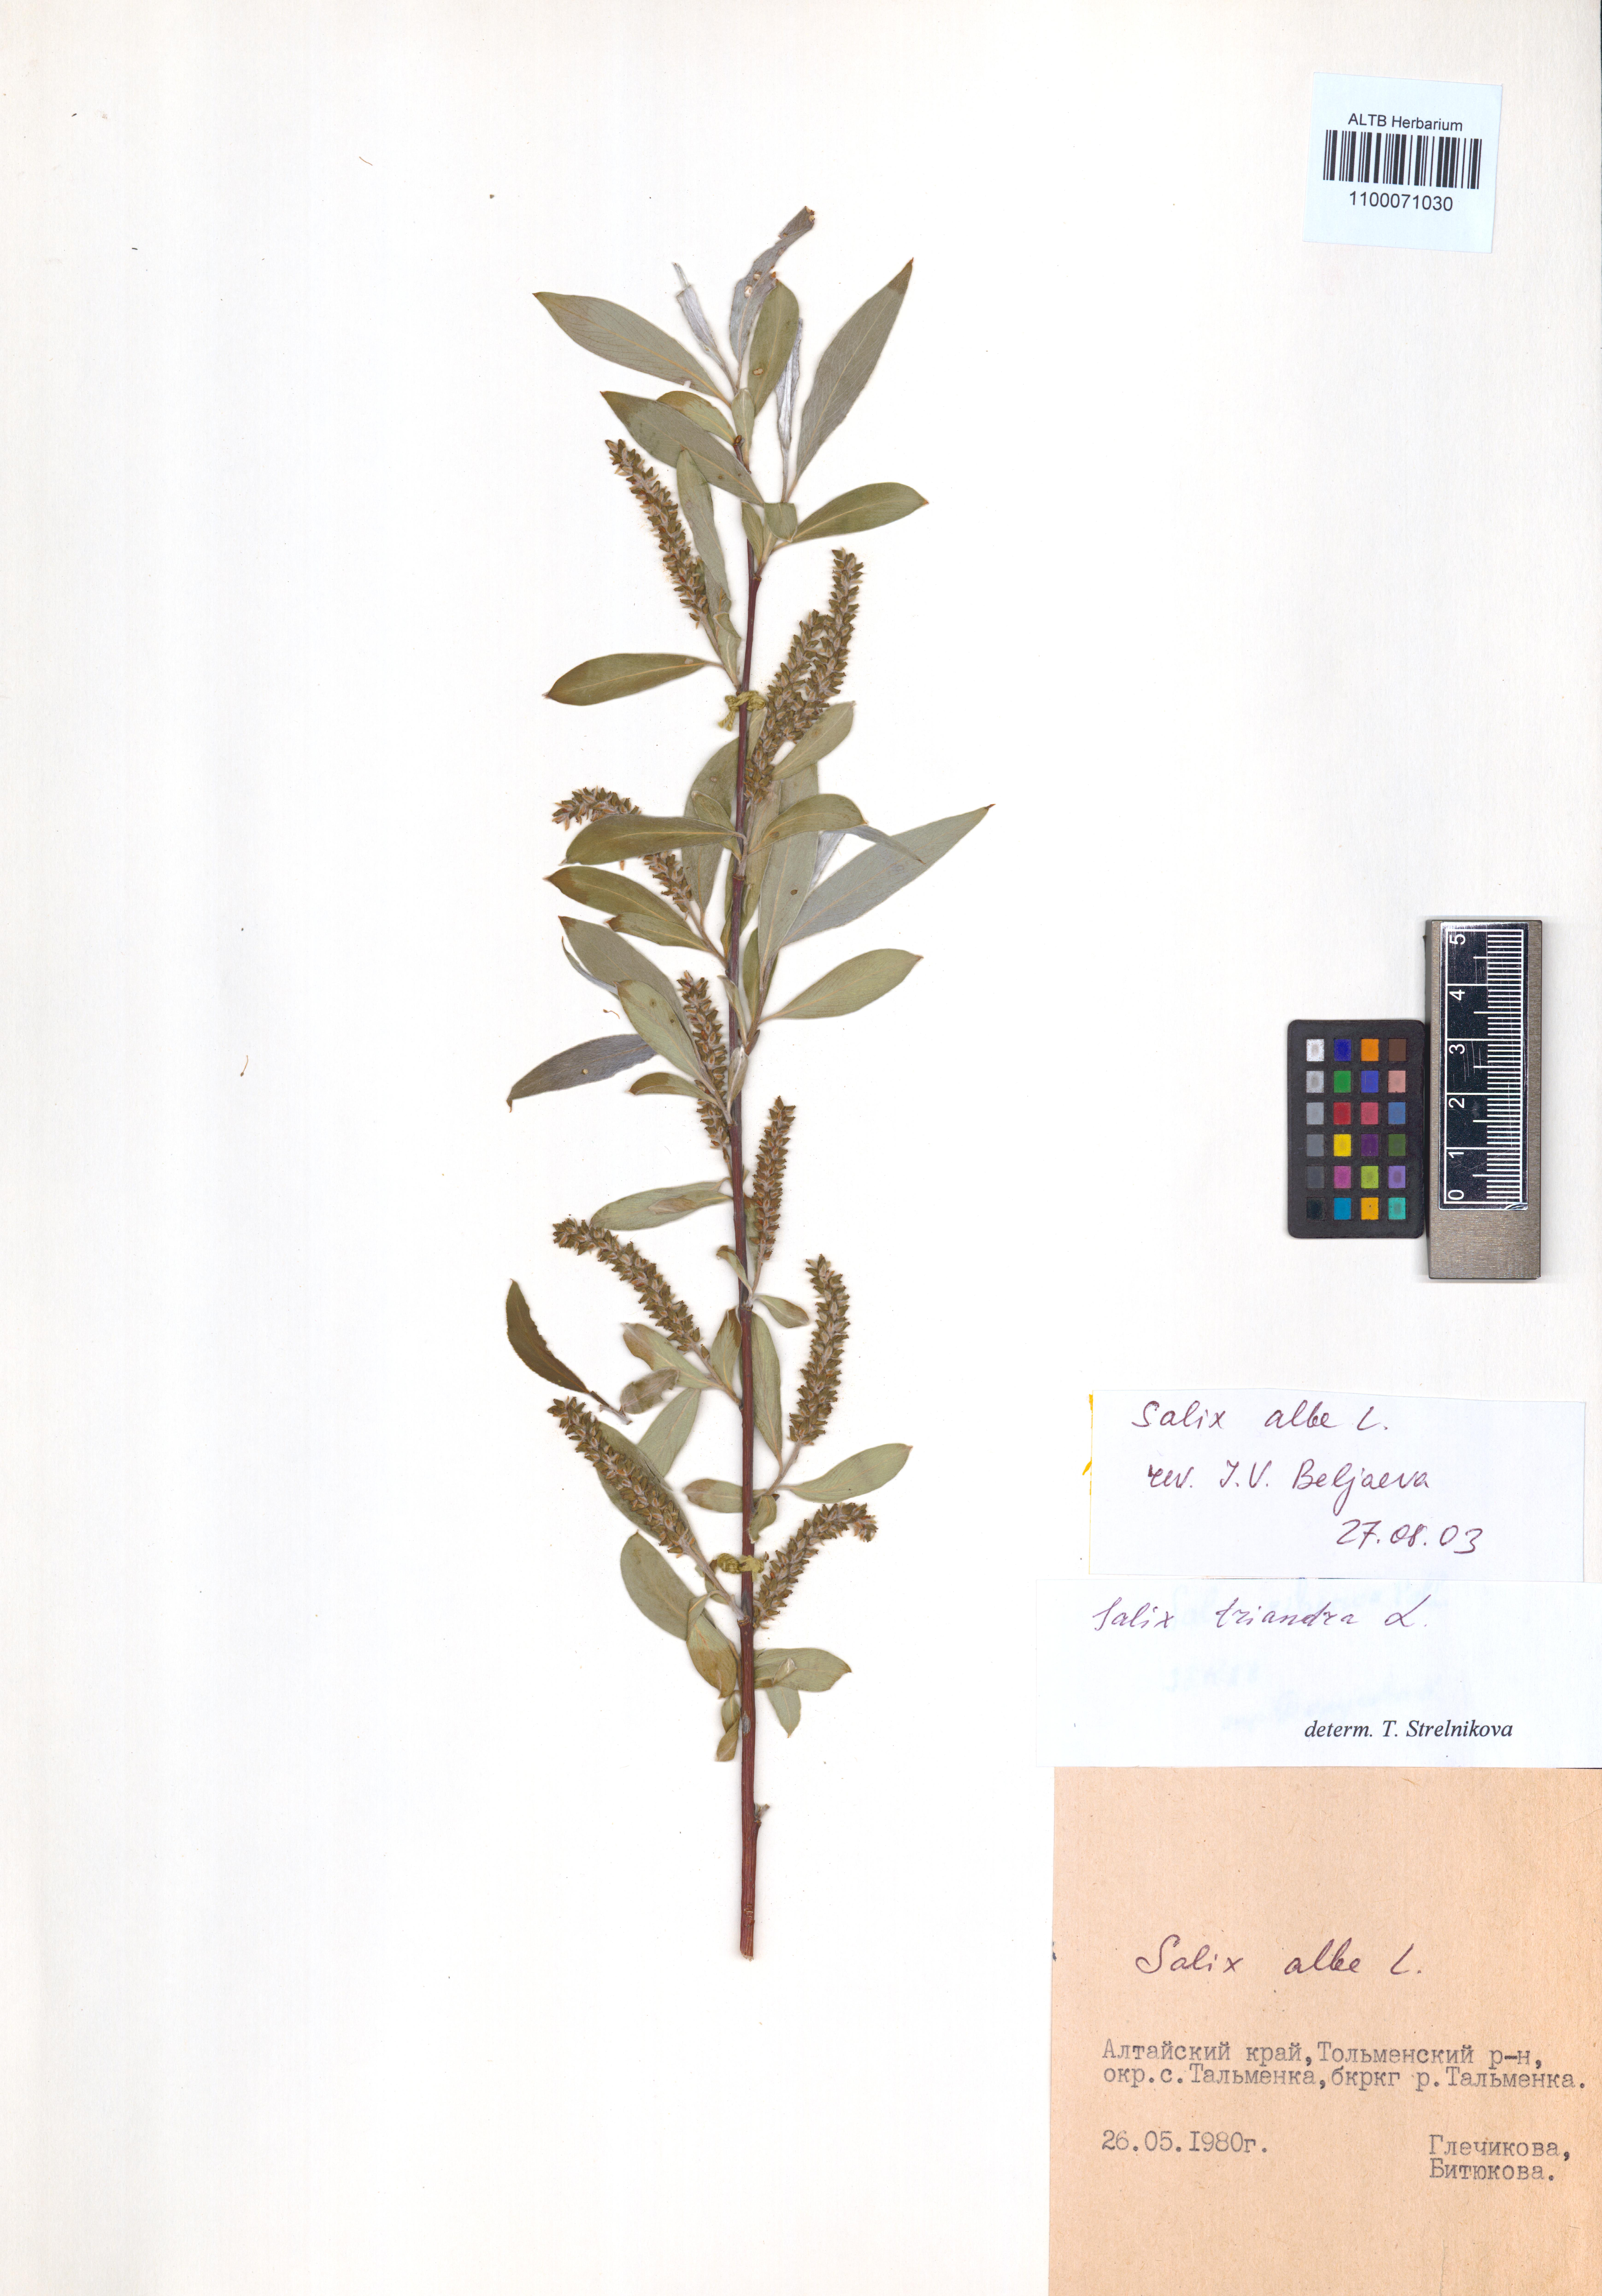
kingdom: Plantae
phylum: Tracheophyta
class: Magnoliopsida
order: Malpighiales
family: Salicaceae
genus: Salix
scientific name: Salix alba
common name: White willow
